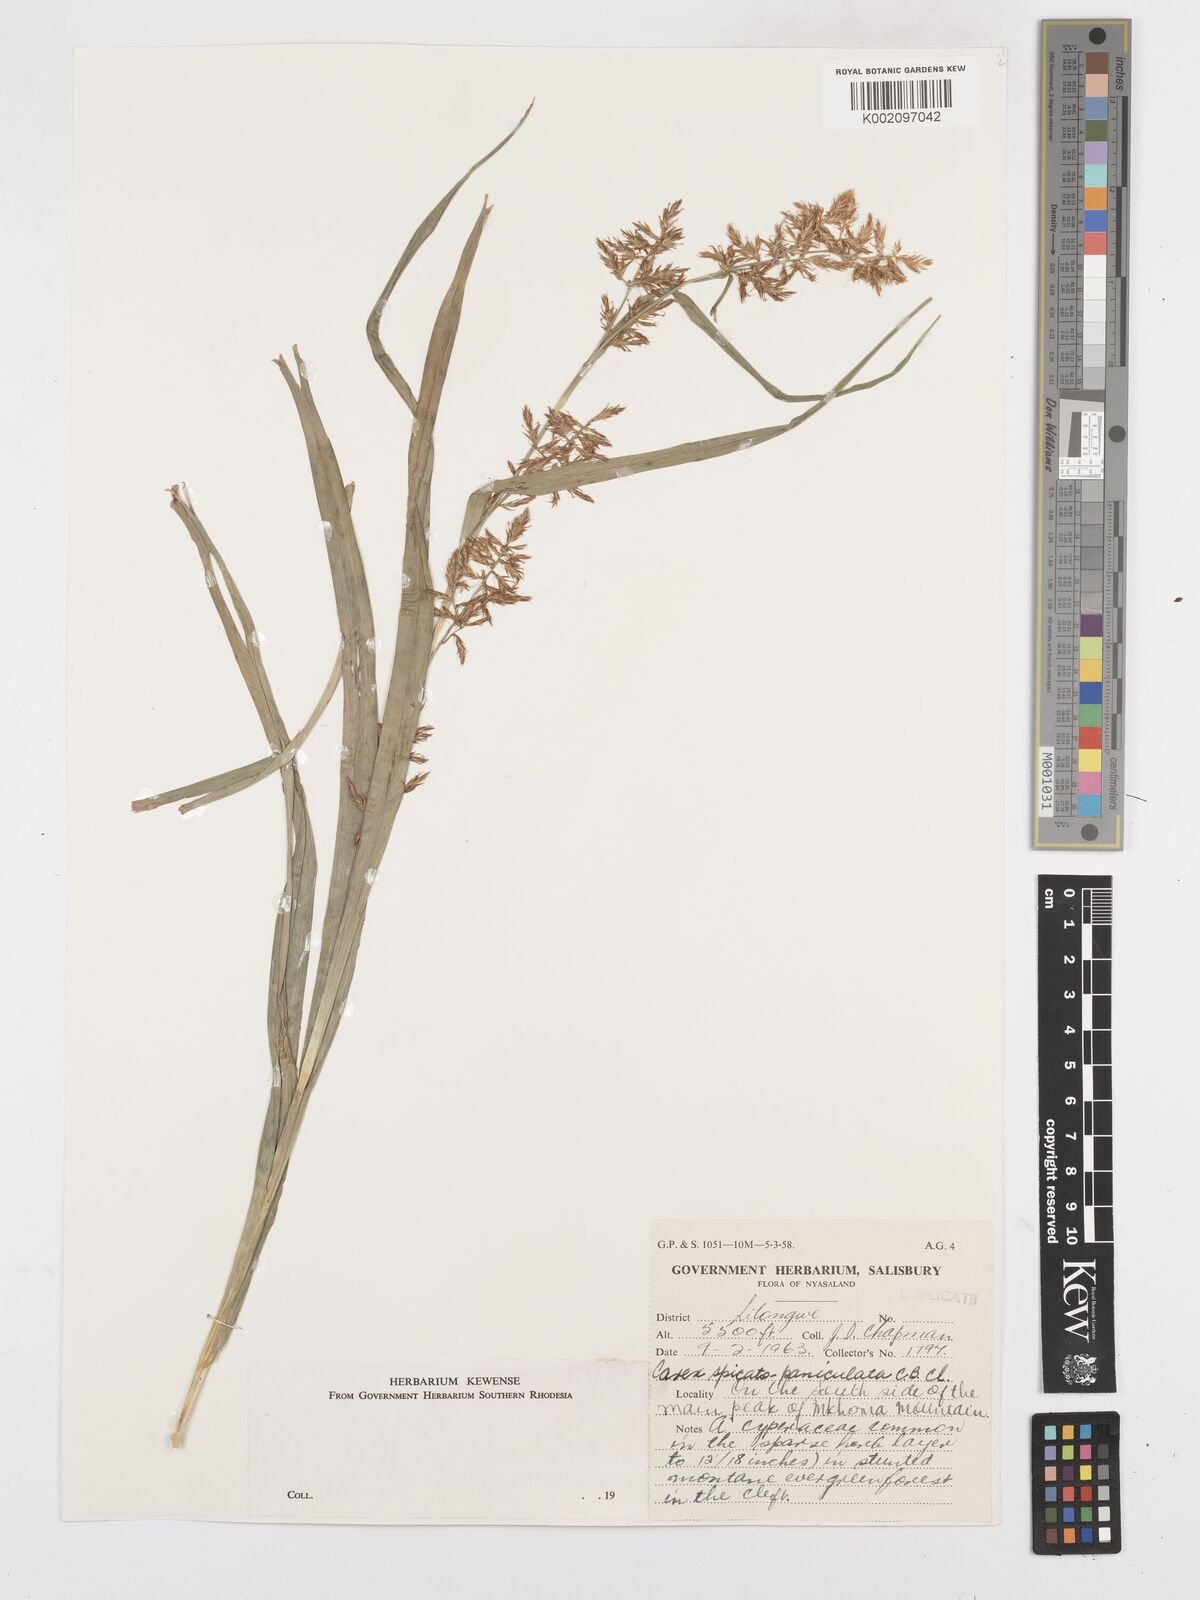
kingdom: Plantae
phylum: Tracheophyta
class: Liliopsida
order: Poales
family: Cyperaceae
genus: Carex
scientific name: Carex spicatopaniculata
